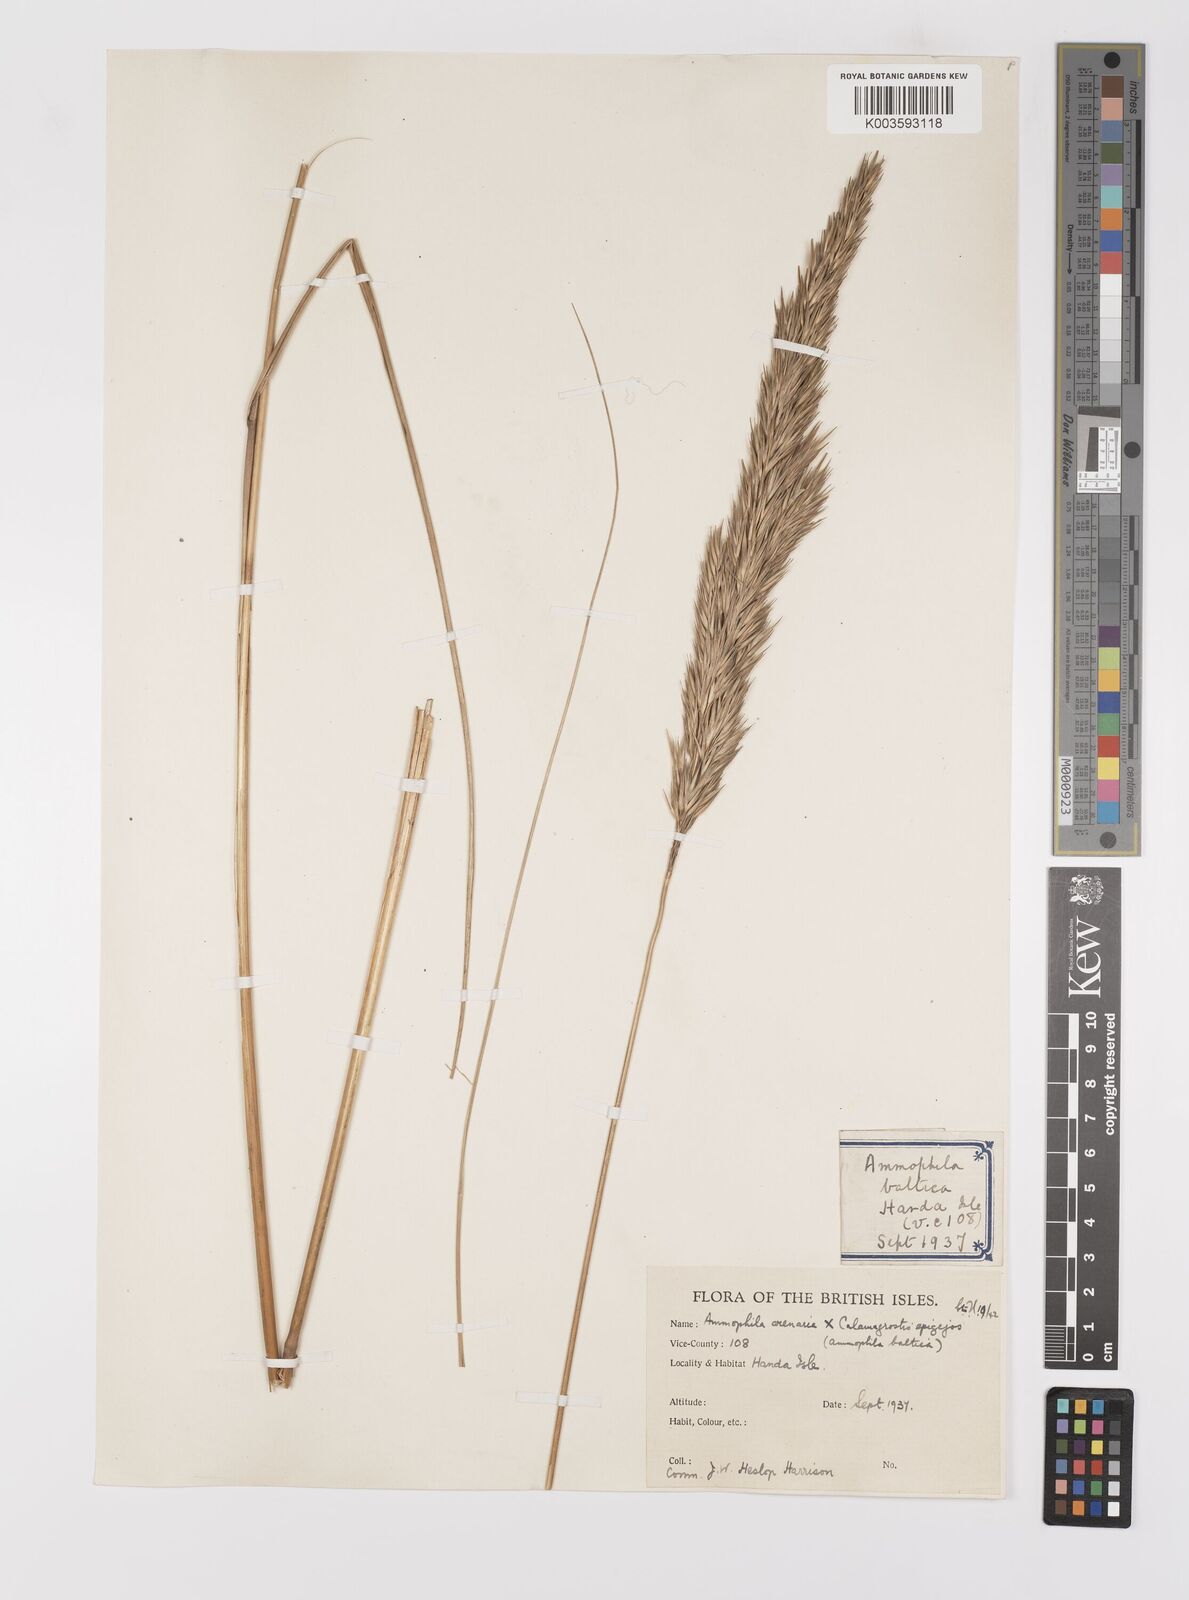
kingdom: Plantae
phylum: Tracheophyta
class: Liliopsida
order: Poales
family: Poaceae
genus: Calamagrostis
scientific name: Calamagrostis baltica
